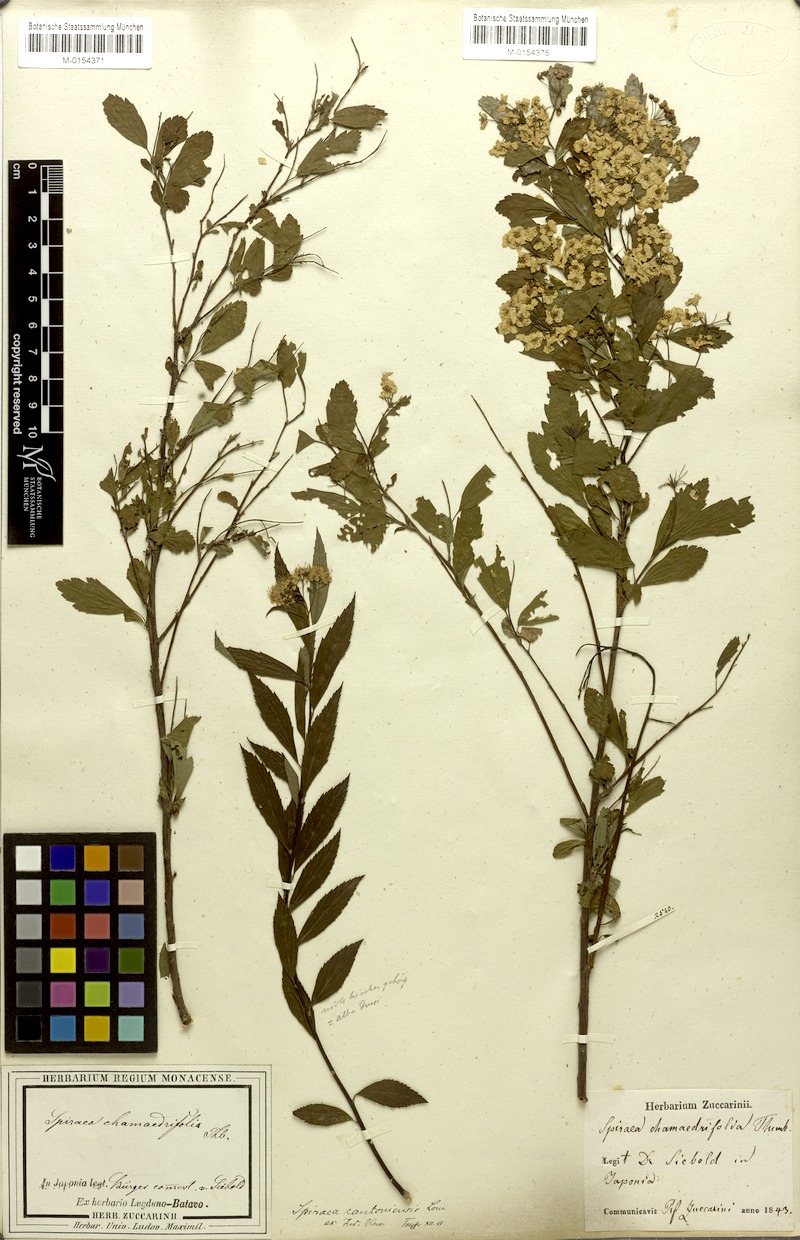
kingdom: Plantae
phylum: Tracheophyta
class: Magnoliopsida
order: Rosales
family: Rosaceae
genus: Spiraea
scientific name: Spiraea cantoniensis
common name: Reeves' meadowsweet
